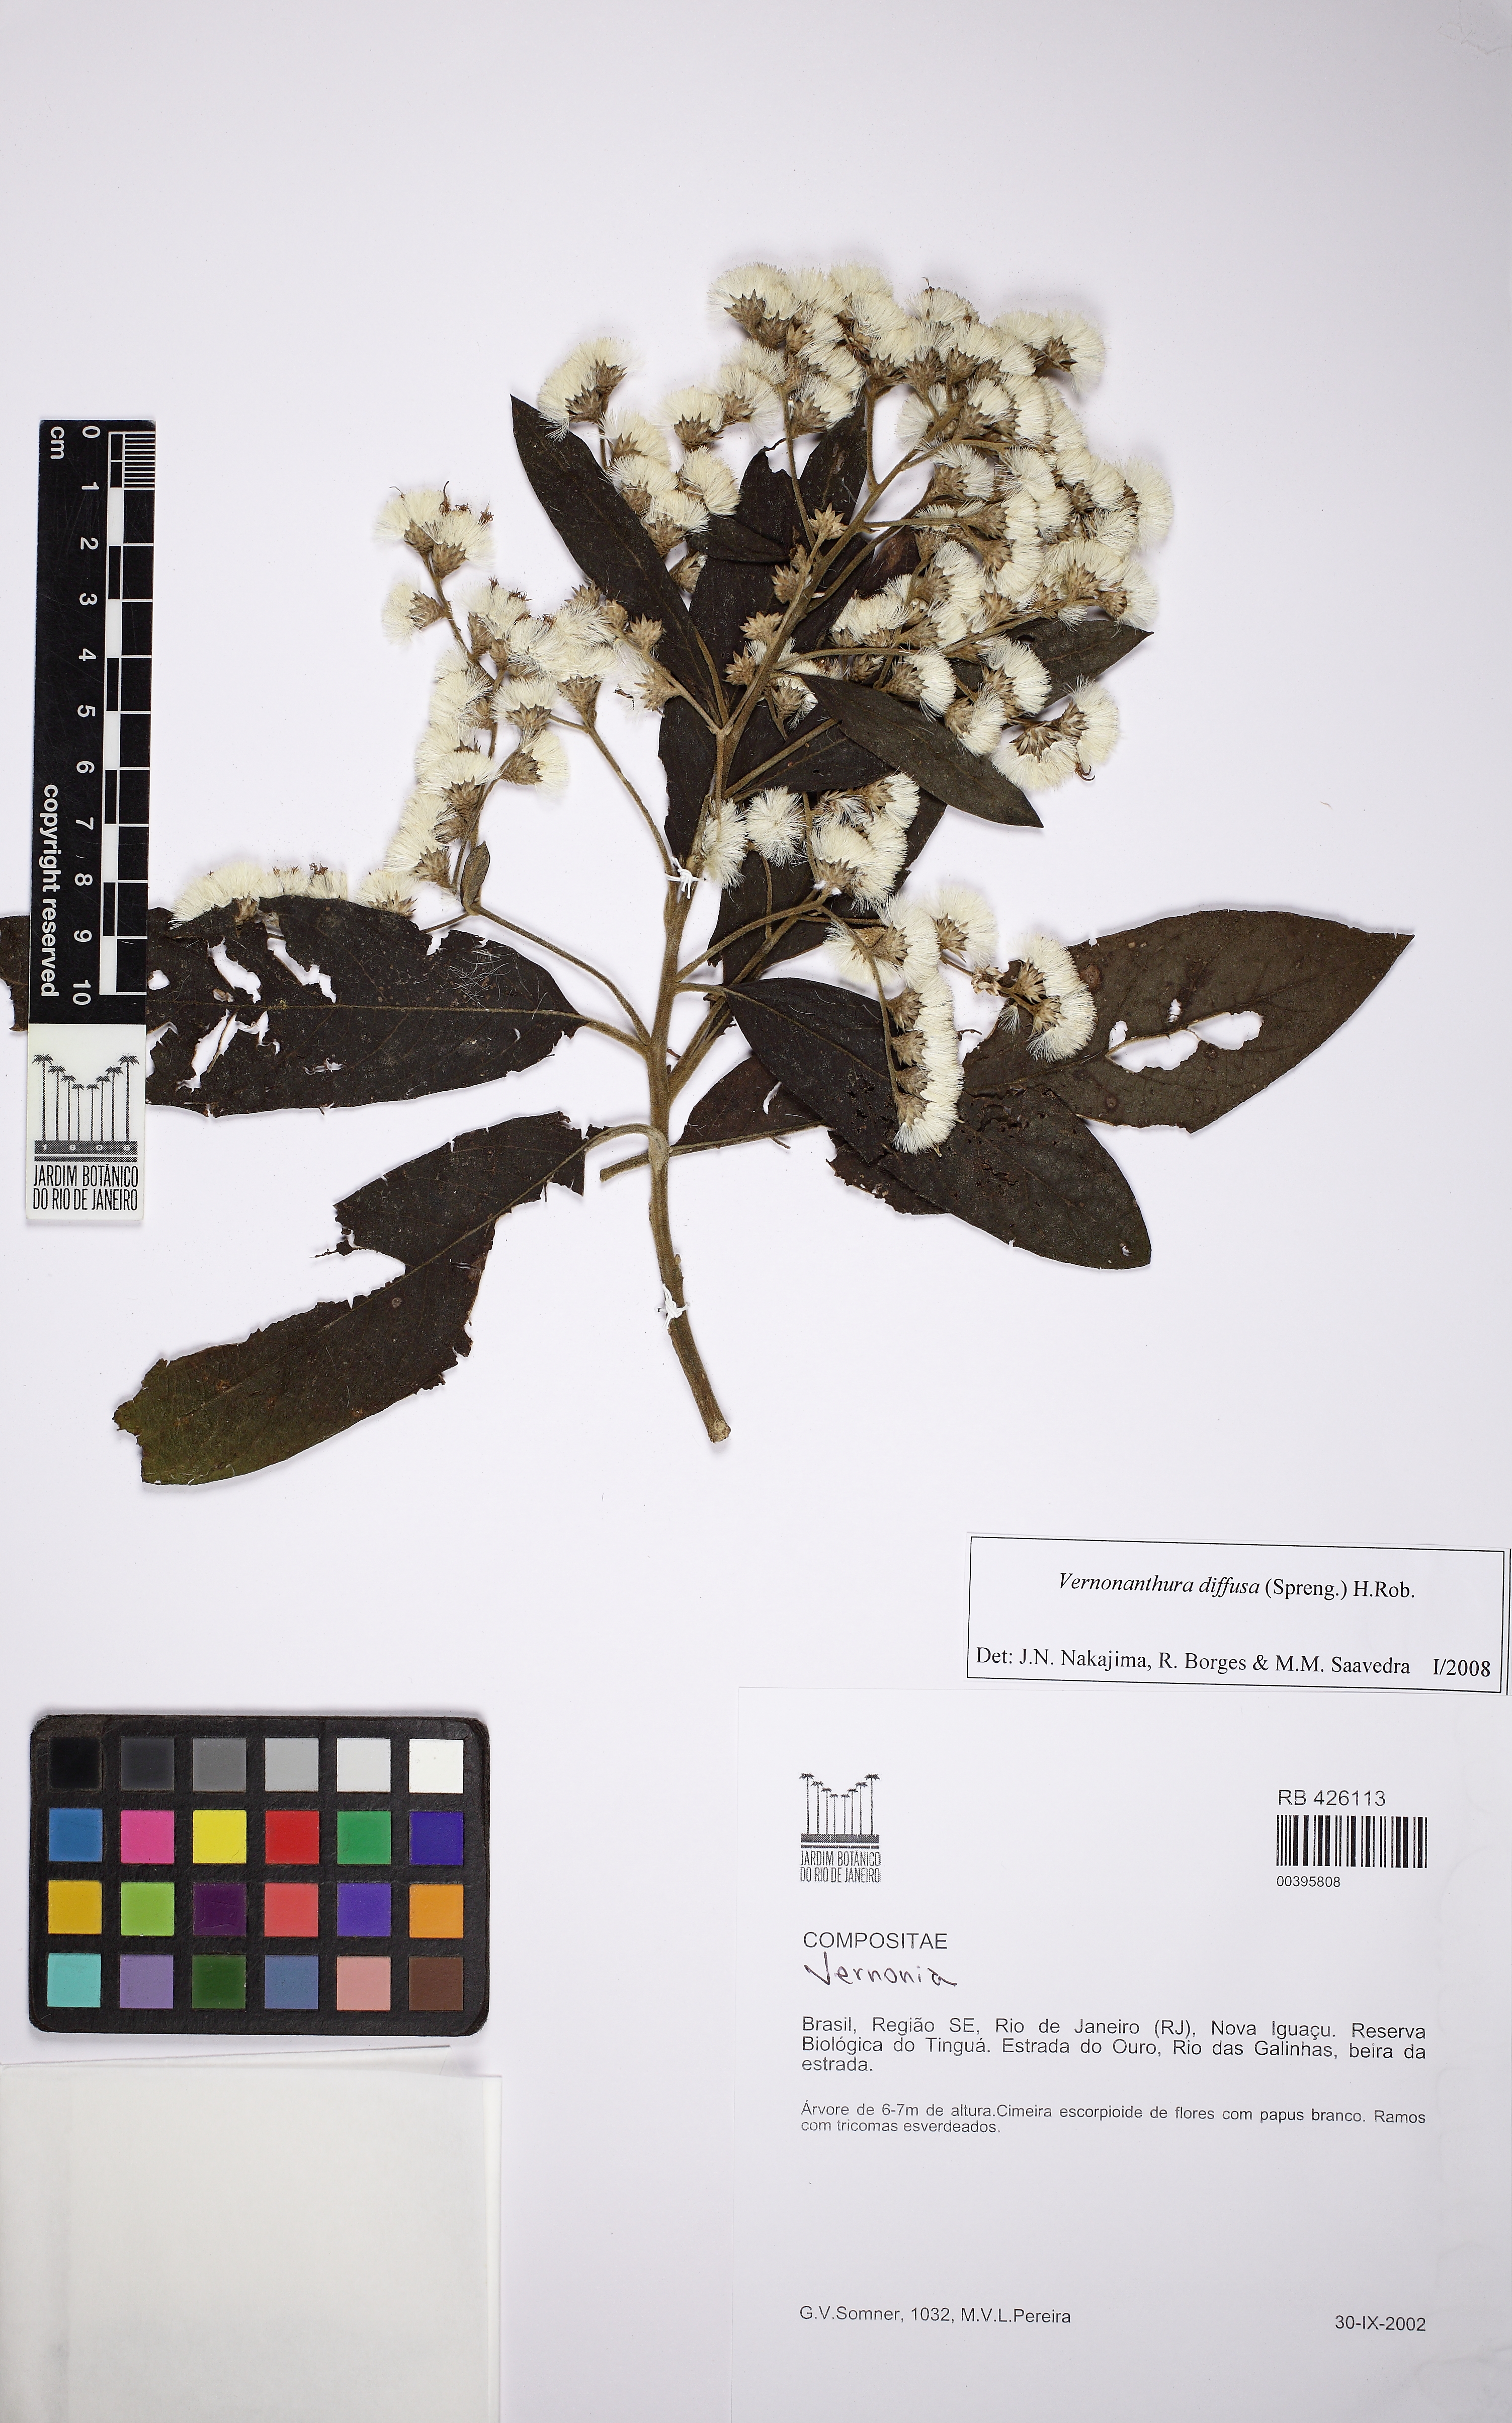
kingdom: Plantae
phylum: Tracheophyta
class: Magnoliopsida
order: Asterales
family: Asteraceae
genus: Vernonanthura
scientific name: Vernonanthura divaricata
